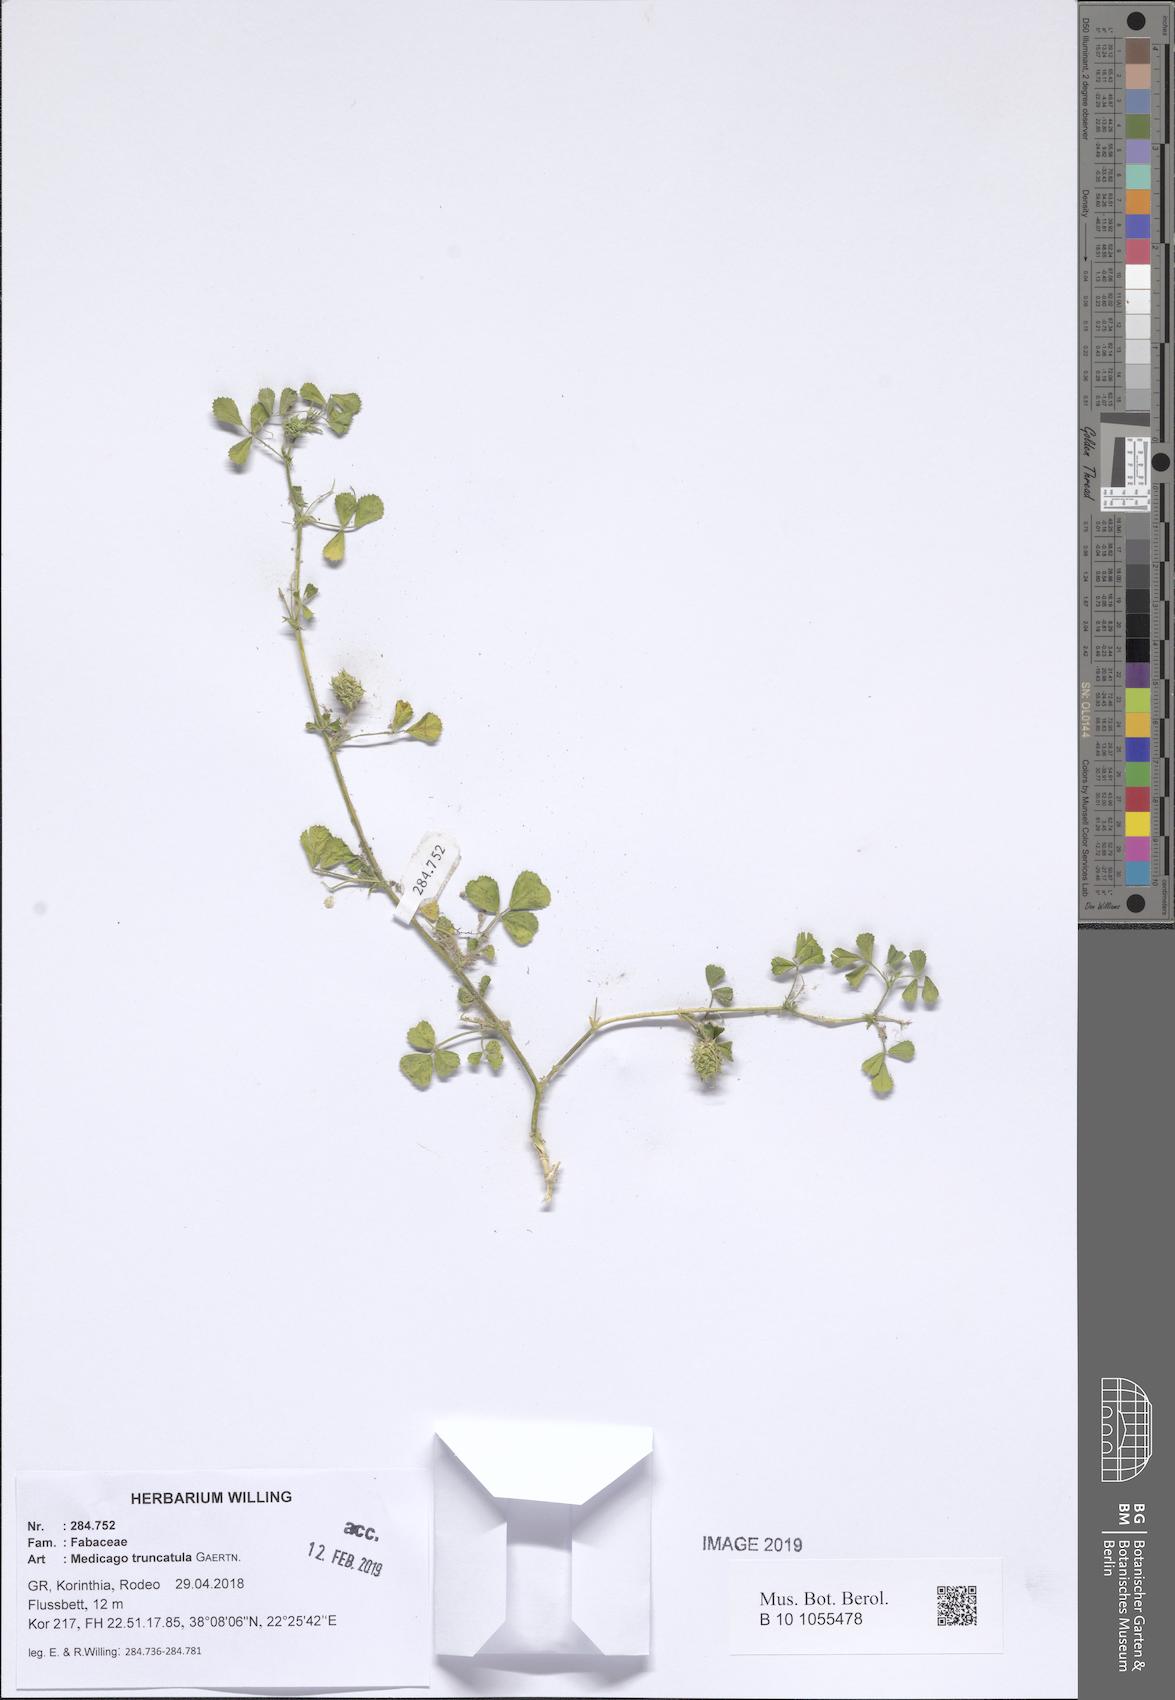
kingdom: Plantae
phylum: Tracheophyta
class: Magnoliopsida
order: Fabales
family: Fabaceae
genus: Medicago
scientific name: Medicago truncatula
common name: Strong-spined medick
